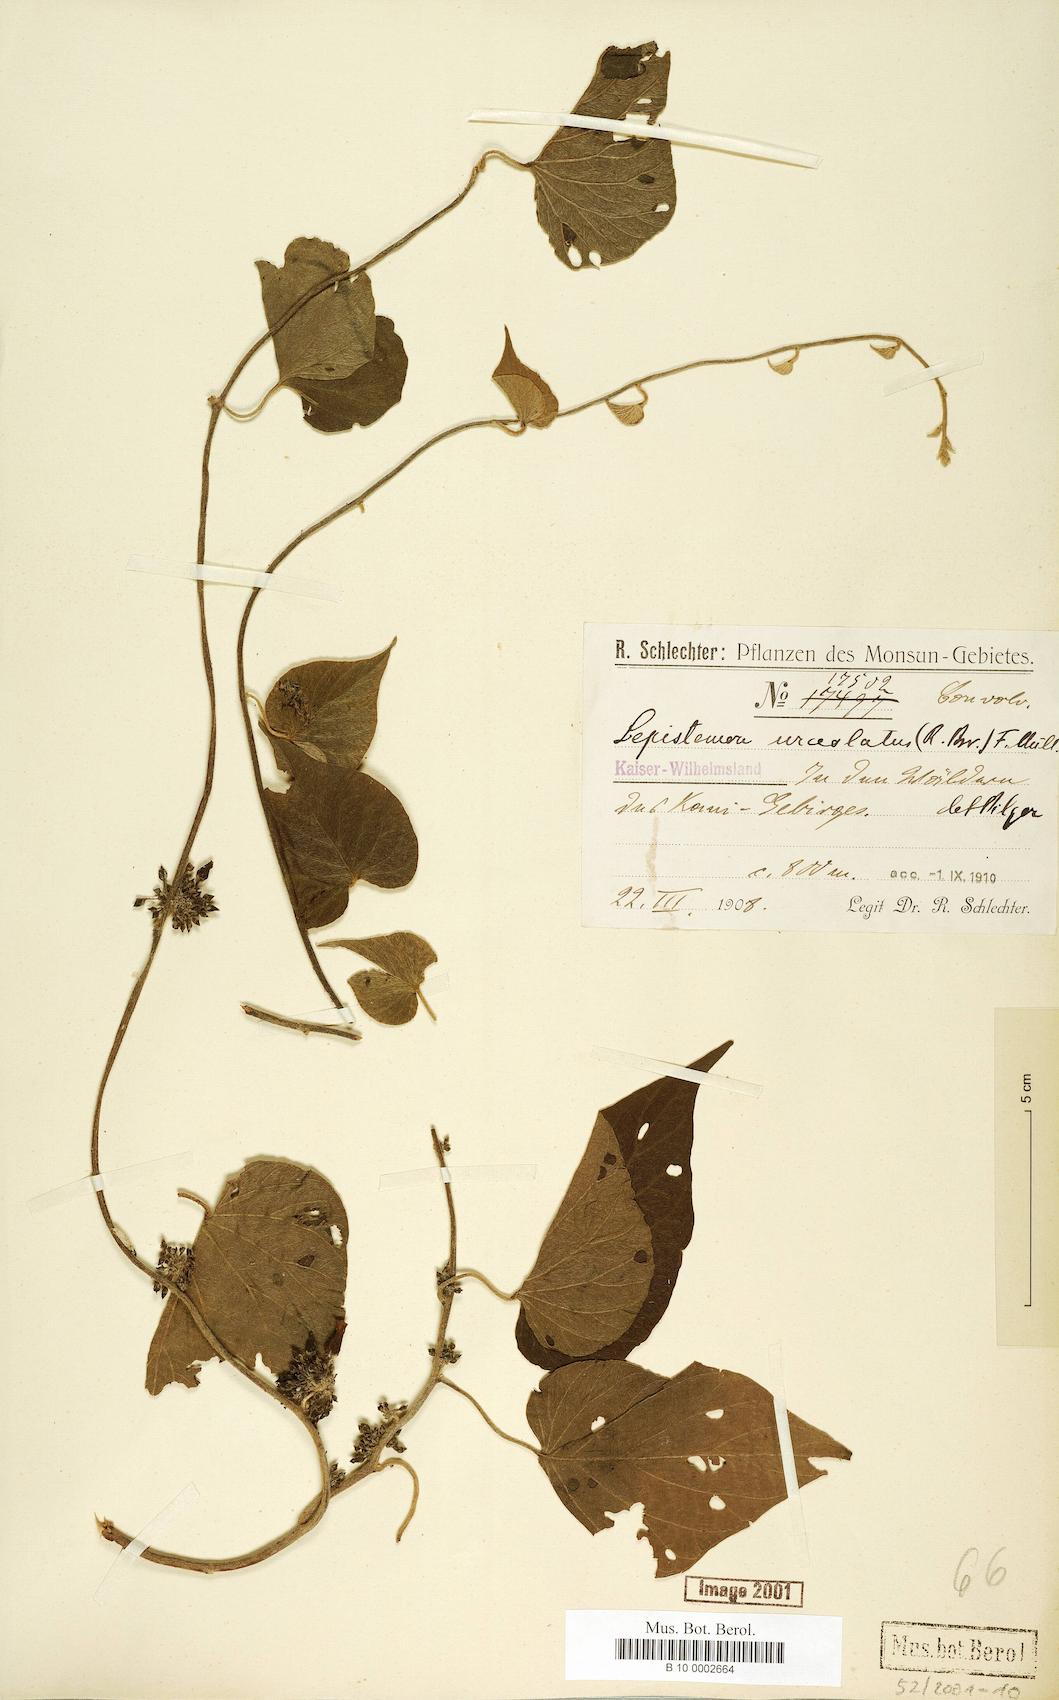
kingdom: Plantae
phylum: Tracheophyta
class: Magnoliopsida
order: Solanales
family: Convolvulaceae
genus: Lepistemon
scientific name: Lepistemon urceolatus
